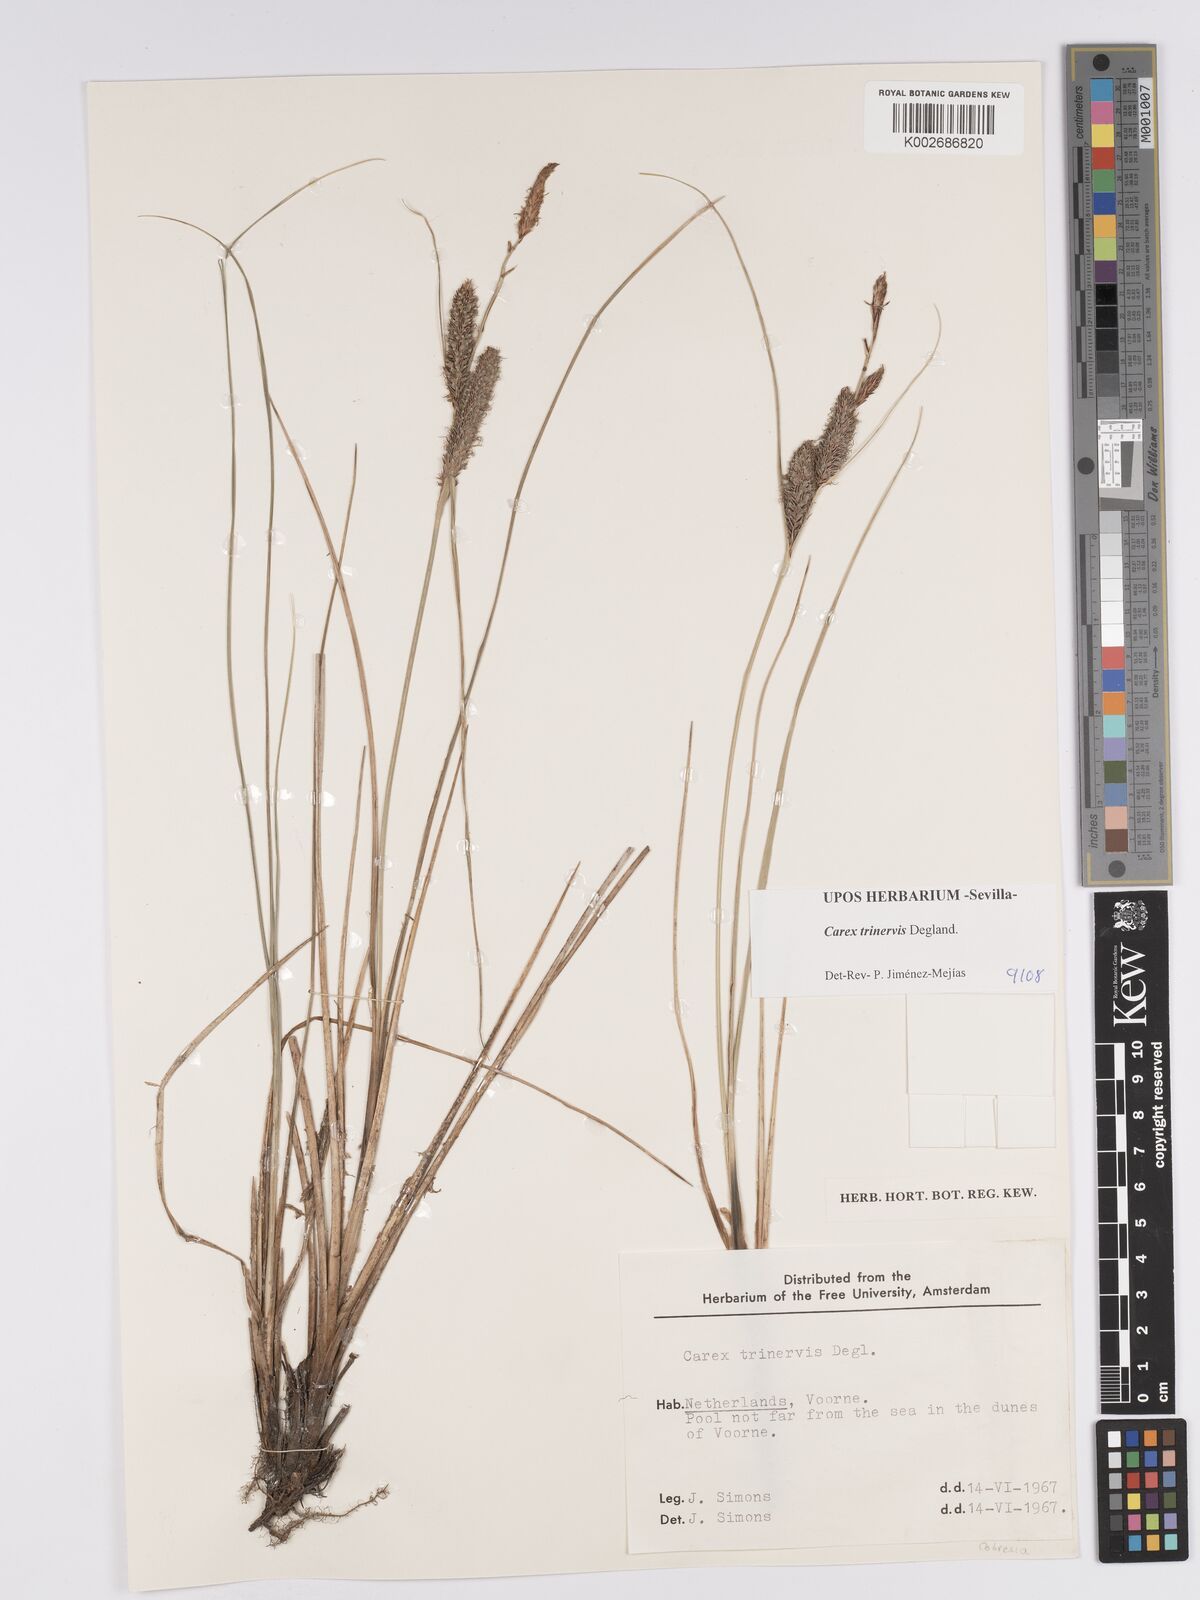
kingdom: Plantae
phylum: Tracheophyta
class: Liliopsida
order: Poales
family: Cyperaceae
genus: Carex
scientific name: Carex trinervis
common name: Three-nerved sedge
